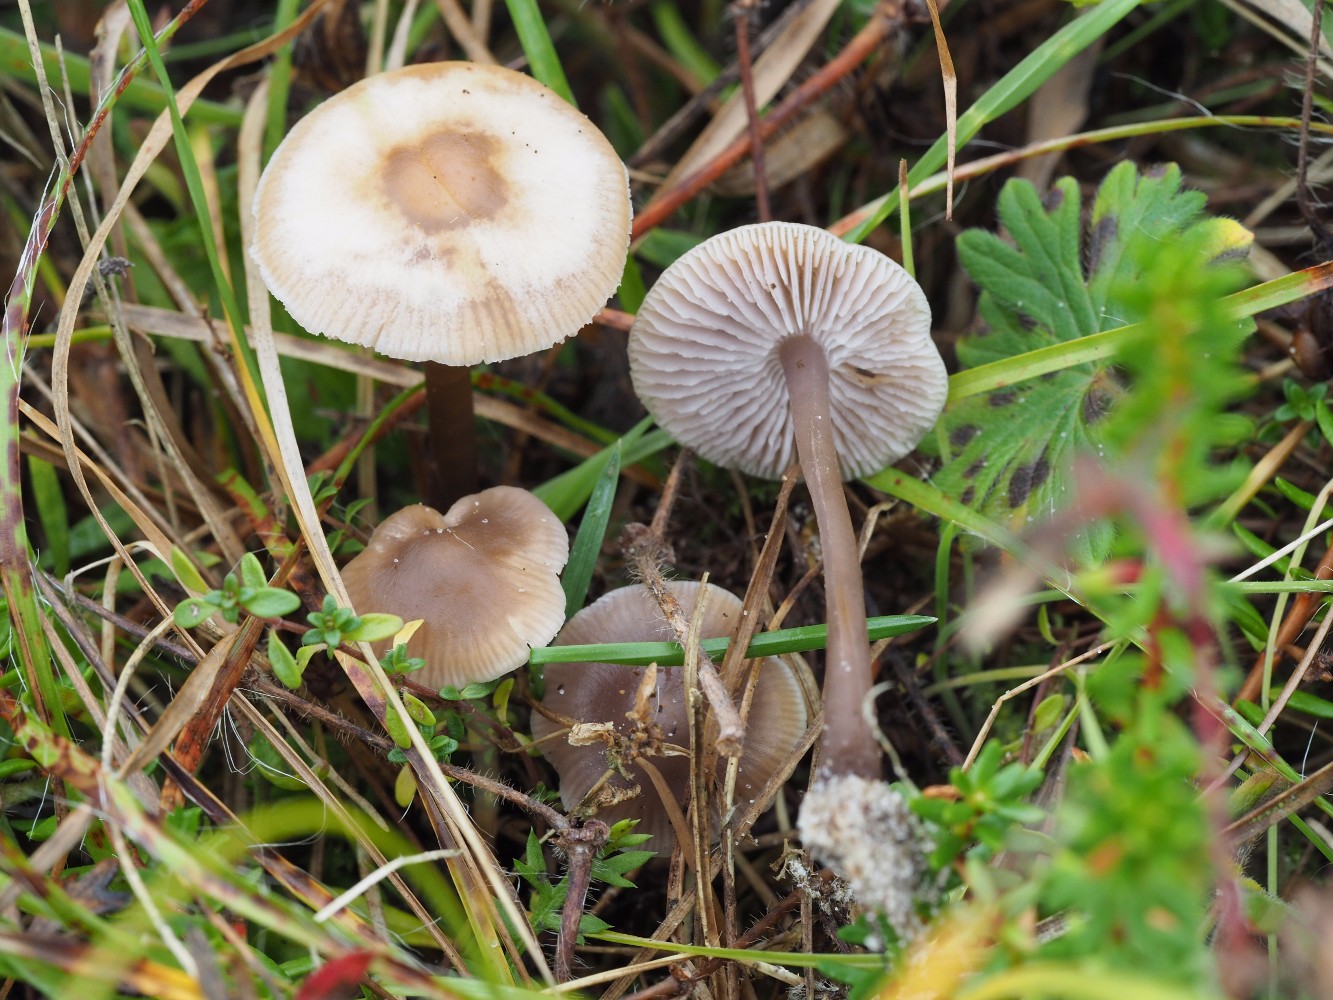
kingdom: Fungi
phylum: Basidiomycota
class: Agaricomycetes
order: Agaricales
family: Mycenaceae
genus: Mycena
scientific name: Mycena luteovariegata
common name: lillagul huesvamp
